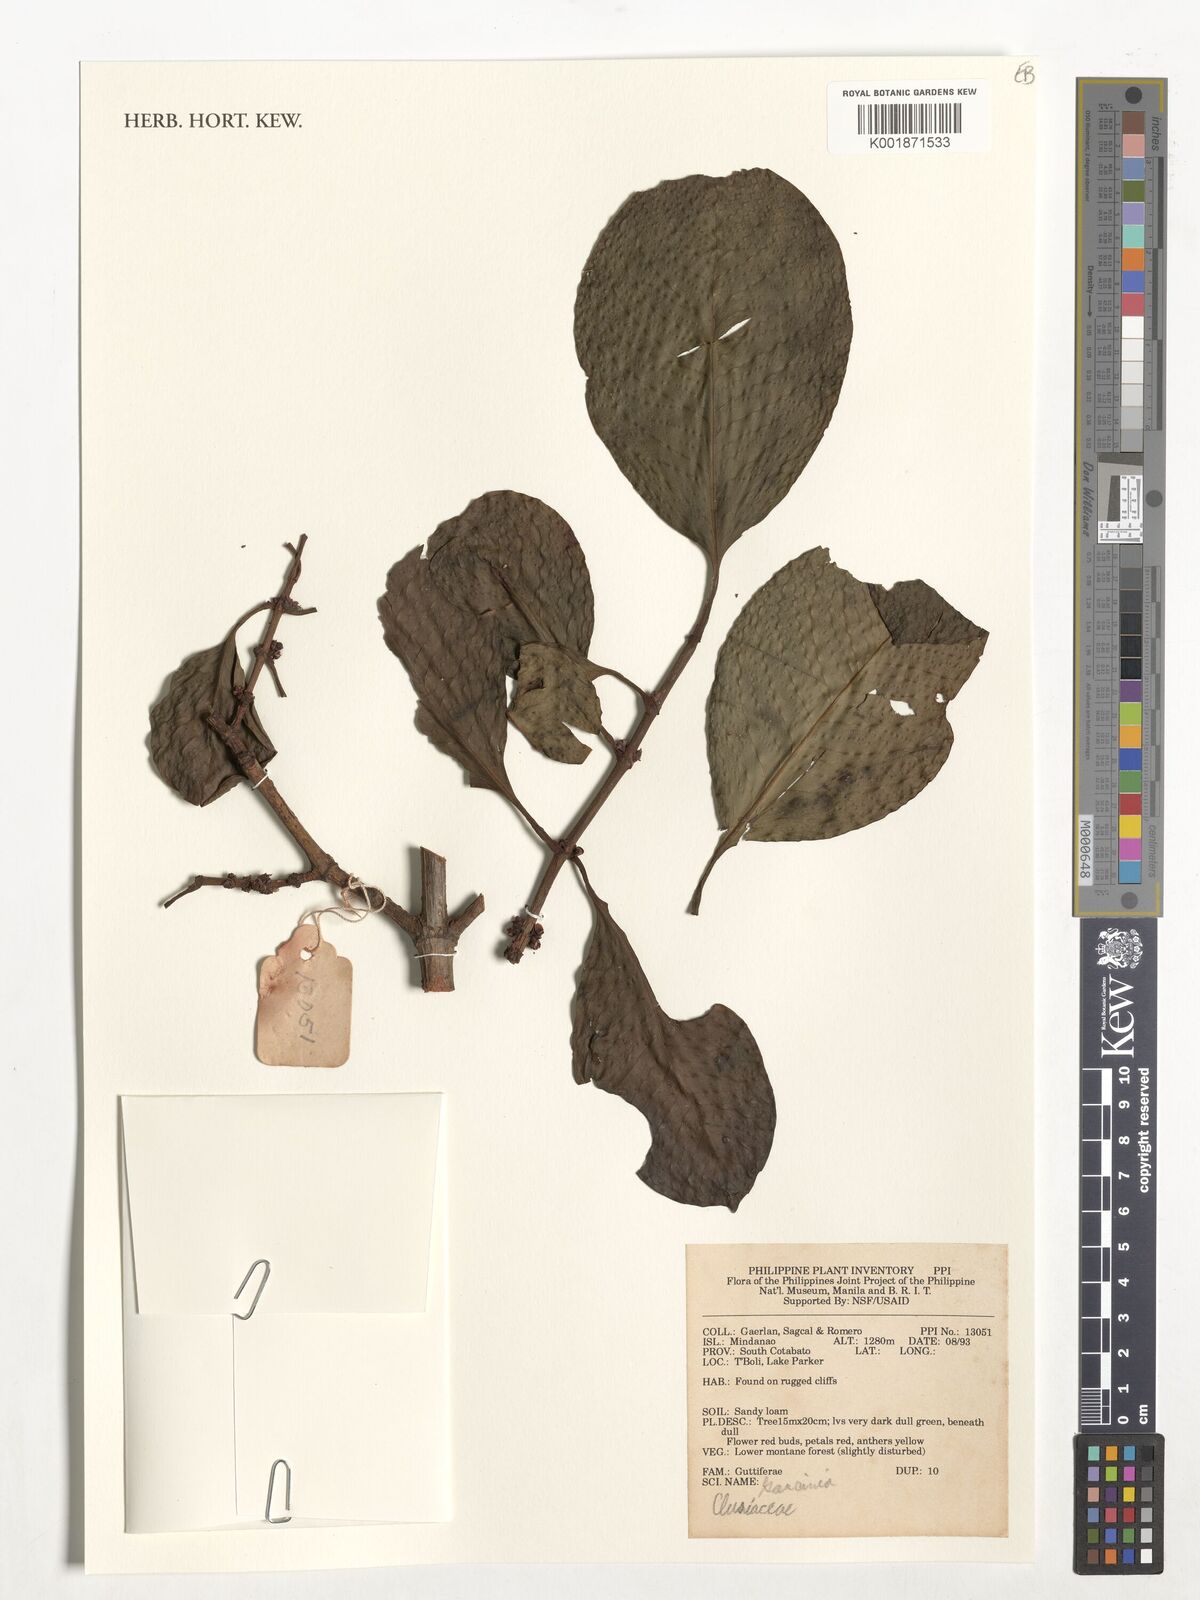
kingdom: Plantae
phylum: Tracheophyta
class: Magnoliopsida
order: Malpighiales
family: Clusiaceae
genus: Garcinia
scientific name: Garcinia
